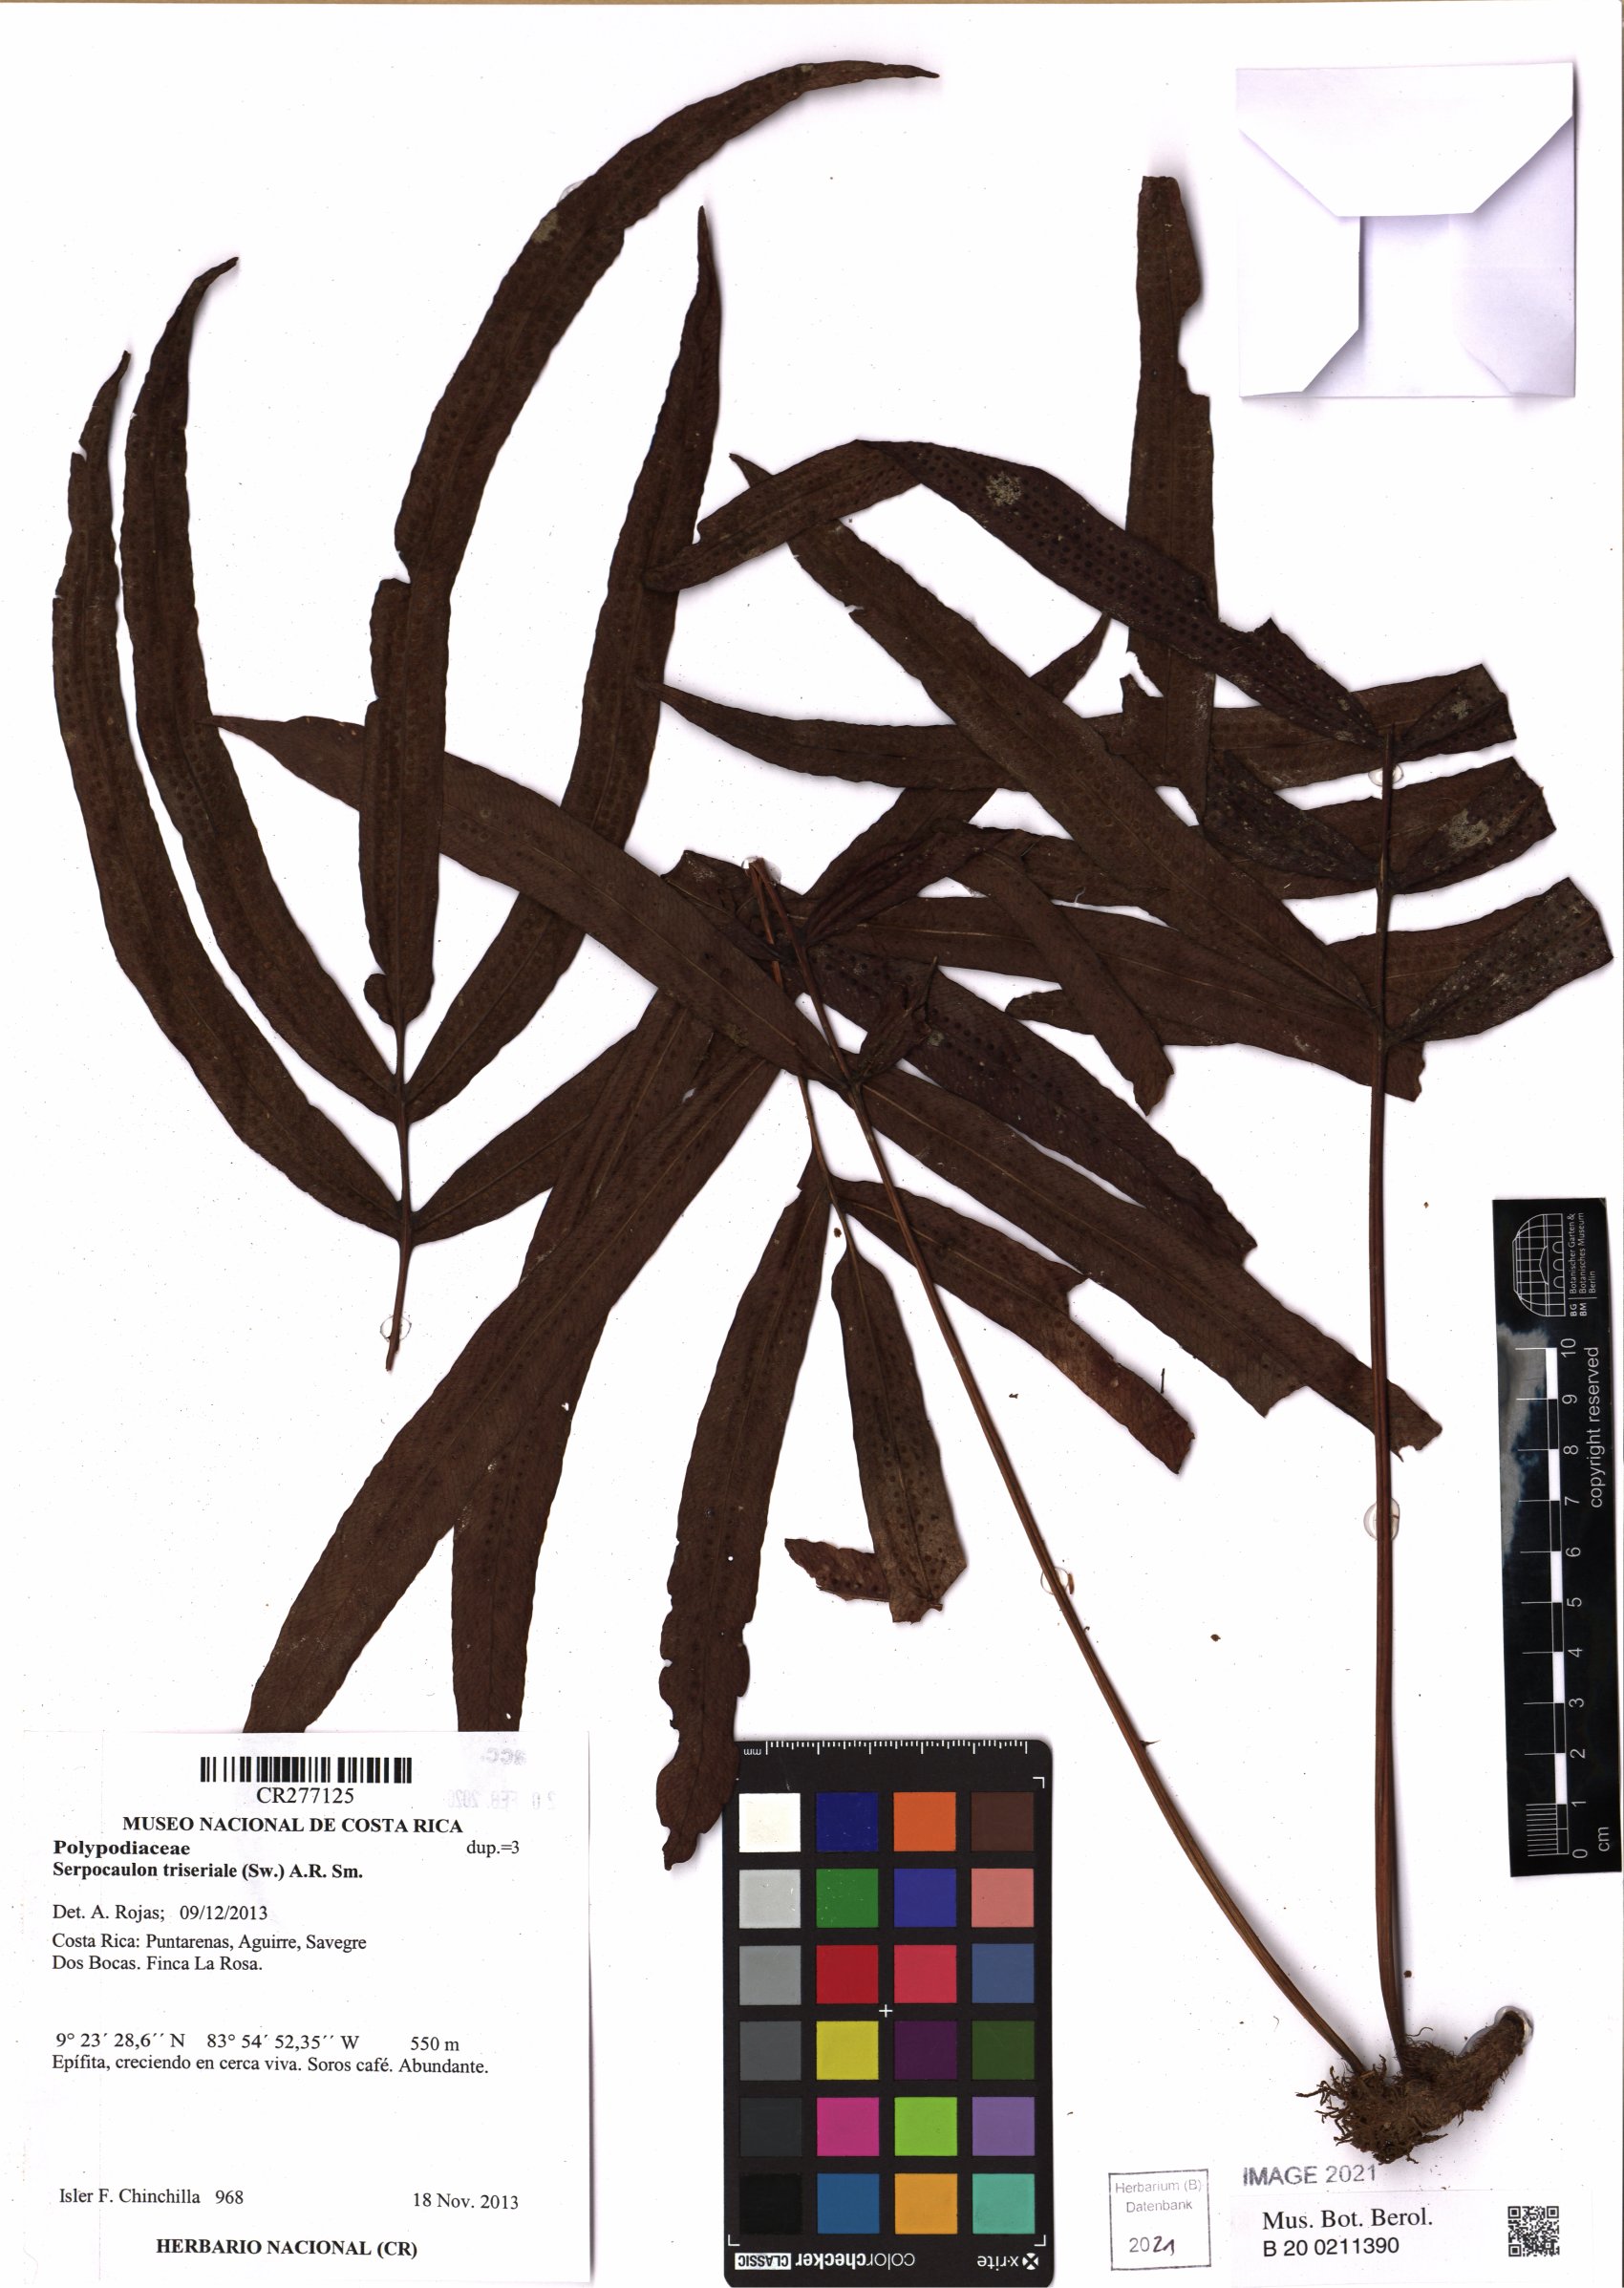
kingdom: Plantae
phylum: Tracheophyta
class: Polypodiopsida
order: Polypodiales
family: Polypodiaceae
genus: Serpocaulon
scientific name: Serpocaulon triseriale
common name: Angle-vein fern
